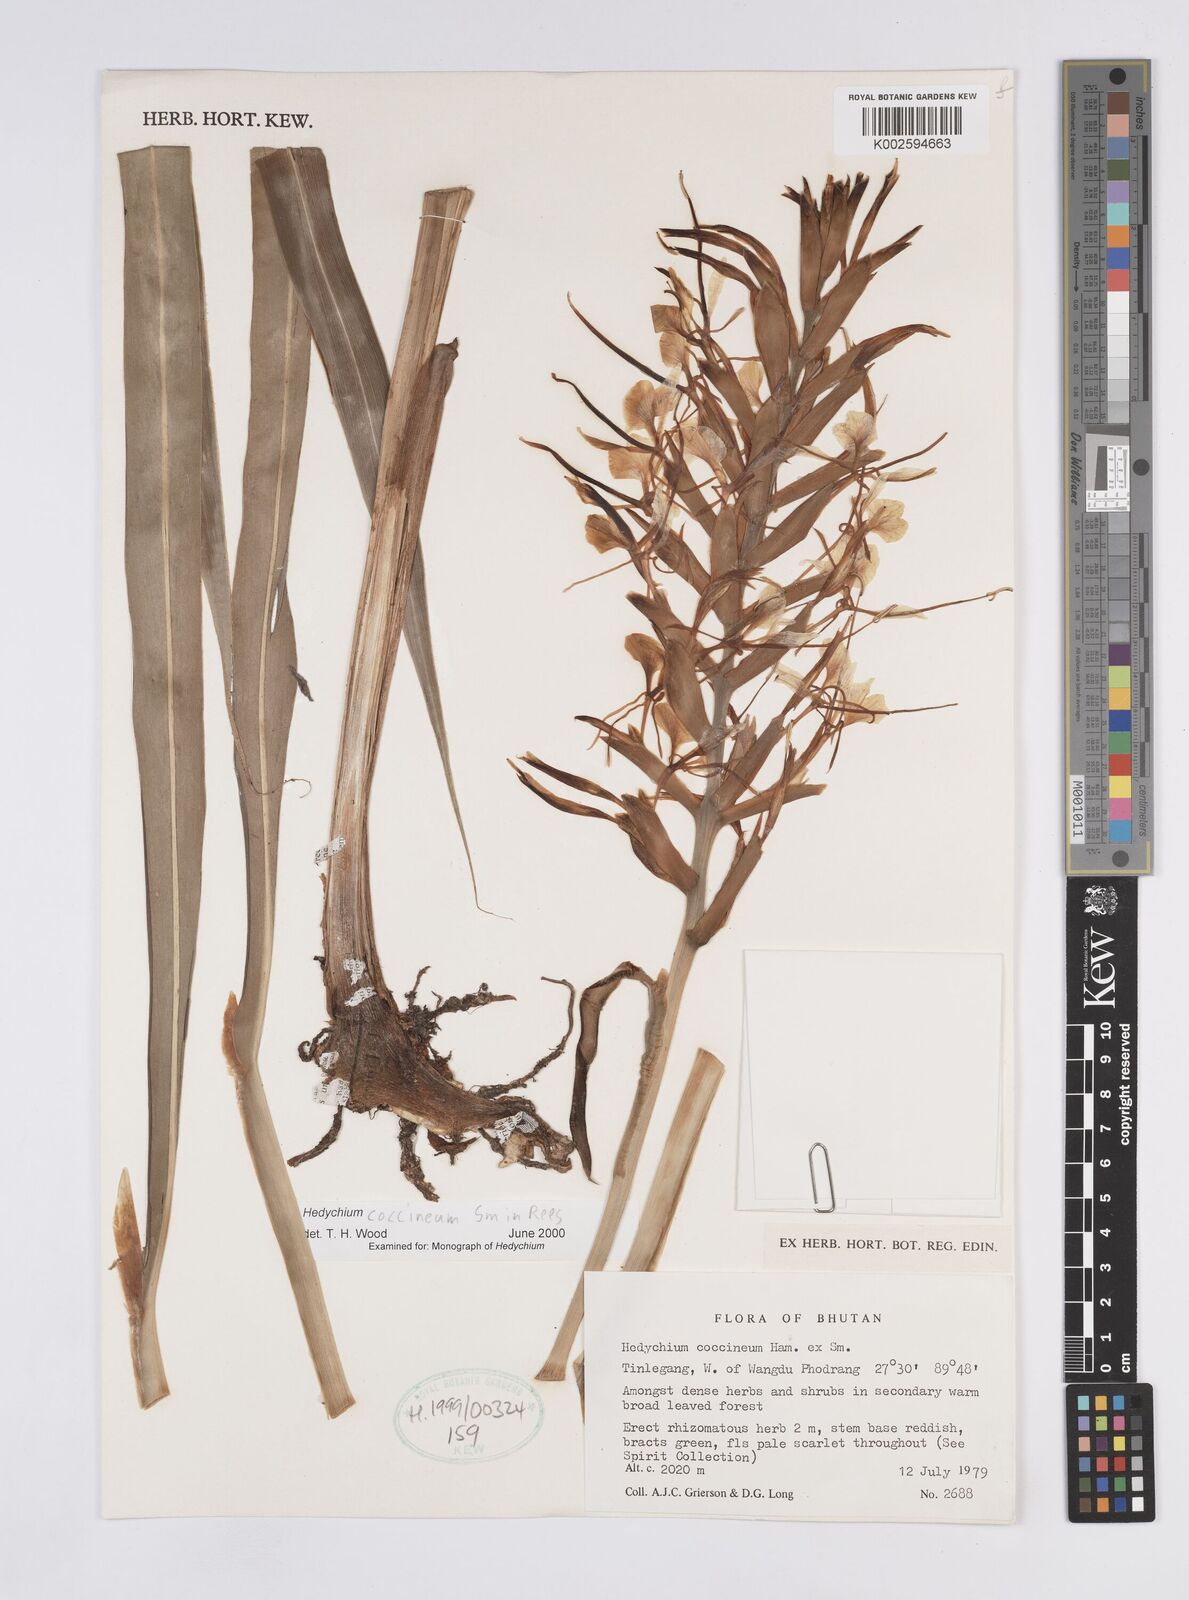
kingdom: Plantae
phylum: Tracheophyta
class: Liliopsida
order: Zingiberales
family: Zingiberaceae
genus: Hedychium
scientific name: Hedychium coccineum
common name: Red ginger-lily
